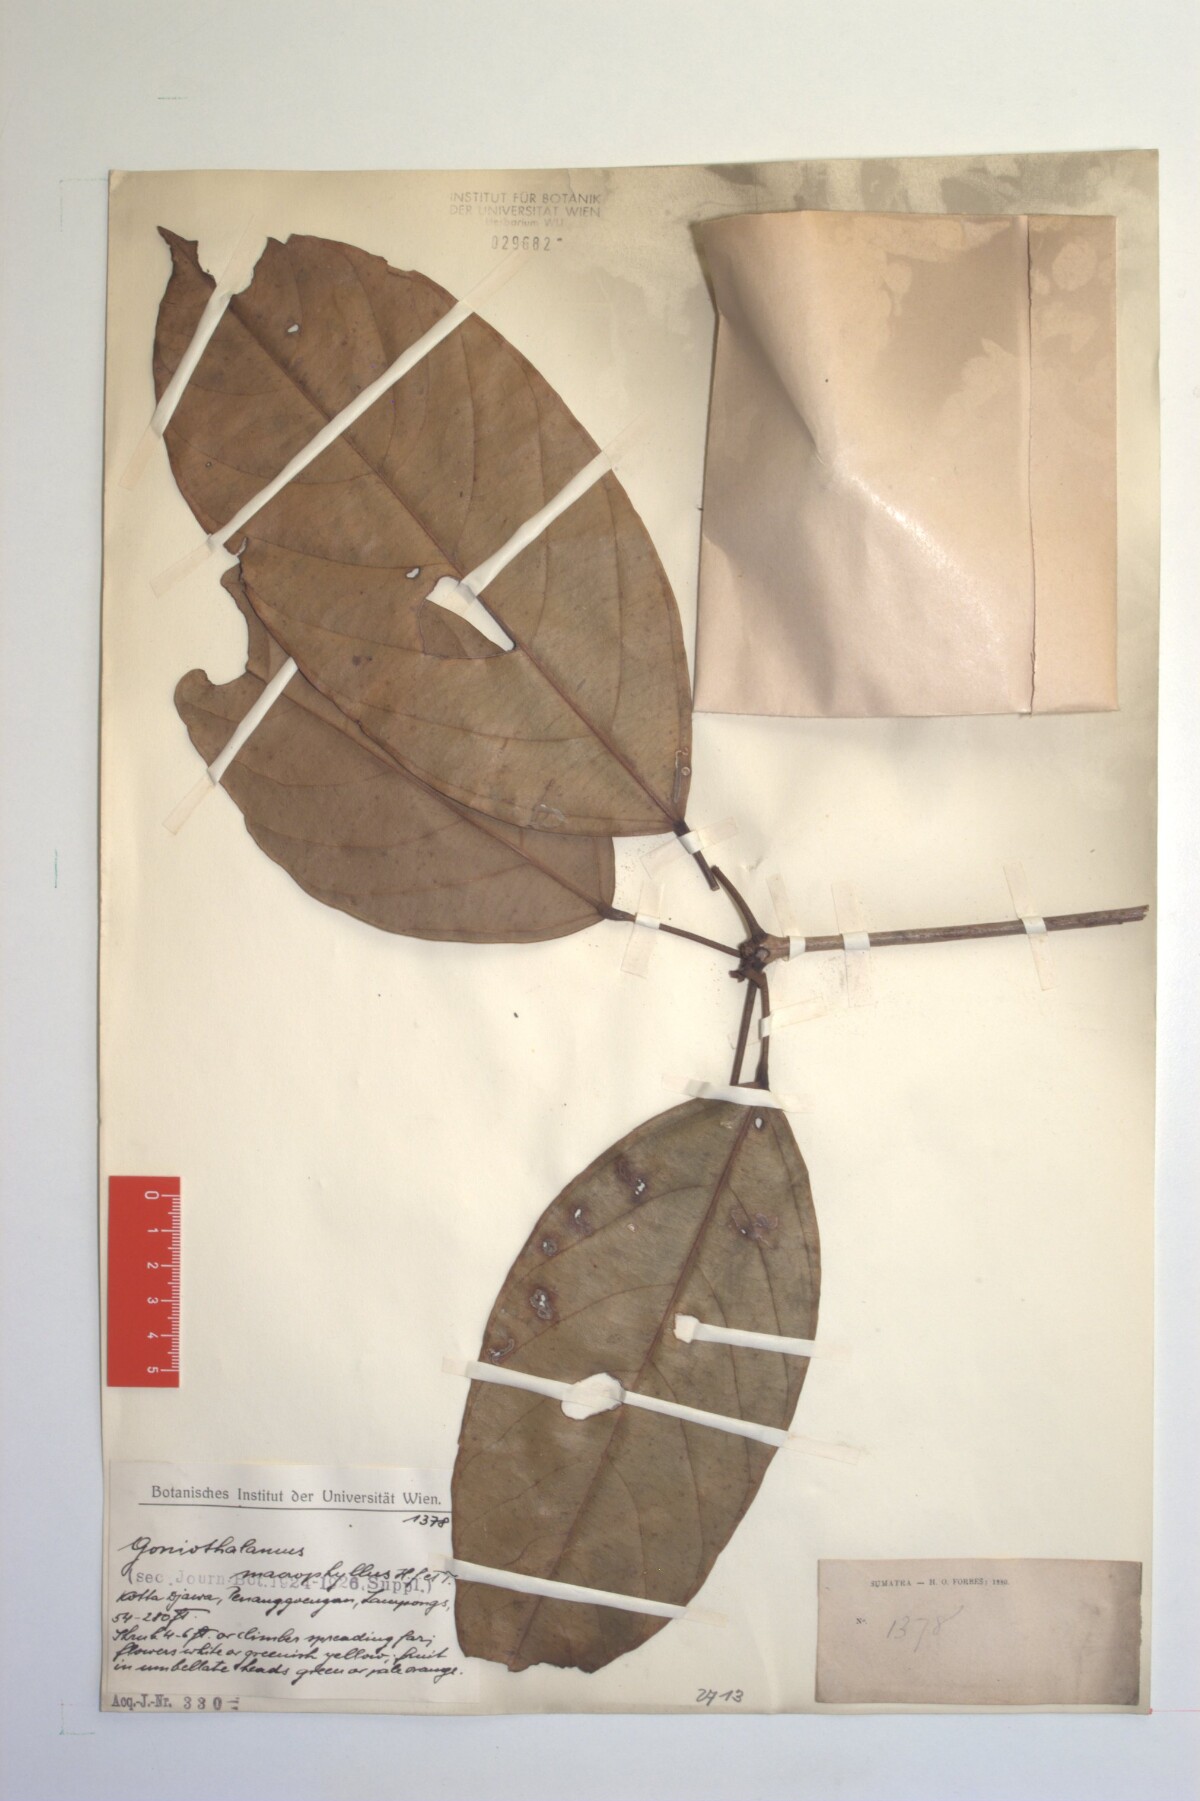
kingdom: Plantae
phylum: Tracheophyta
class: Magnoliopsida
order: Gentianales
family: Apocynaceae
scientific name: Apocynaceae
